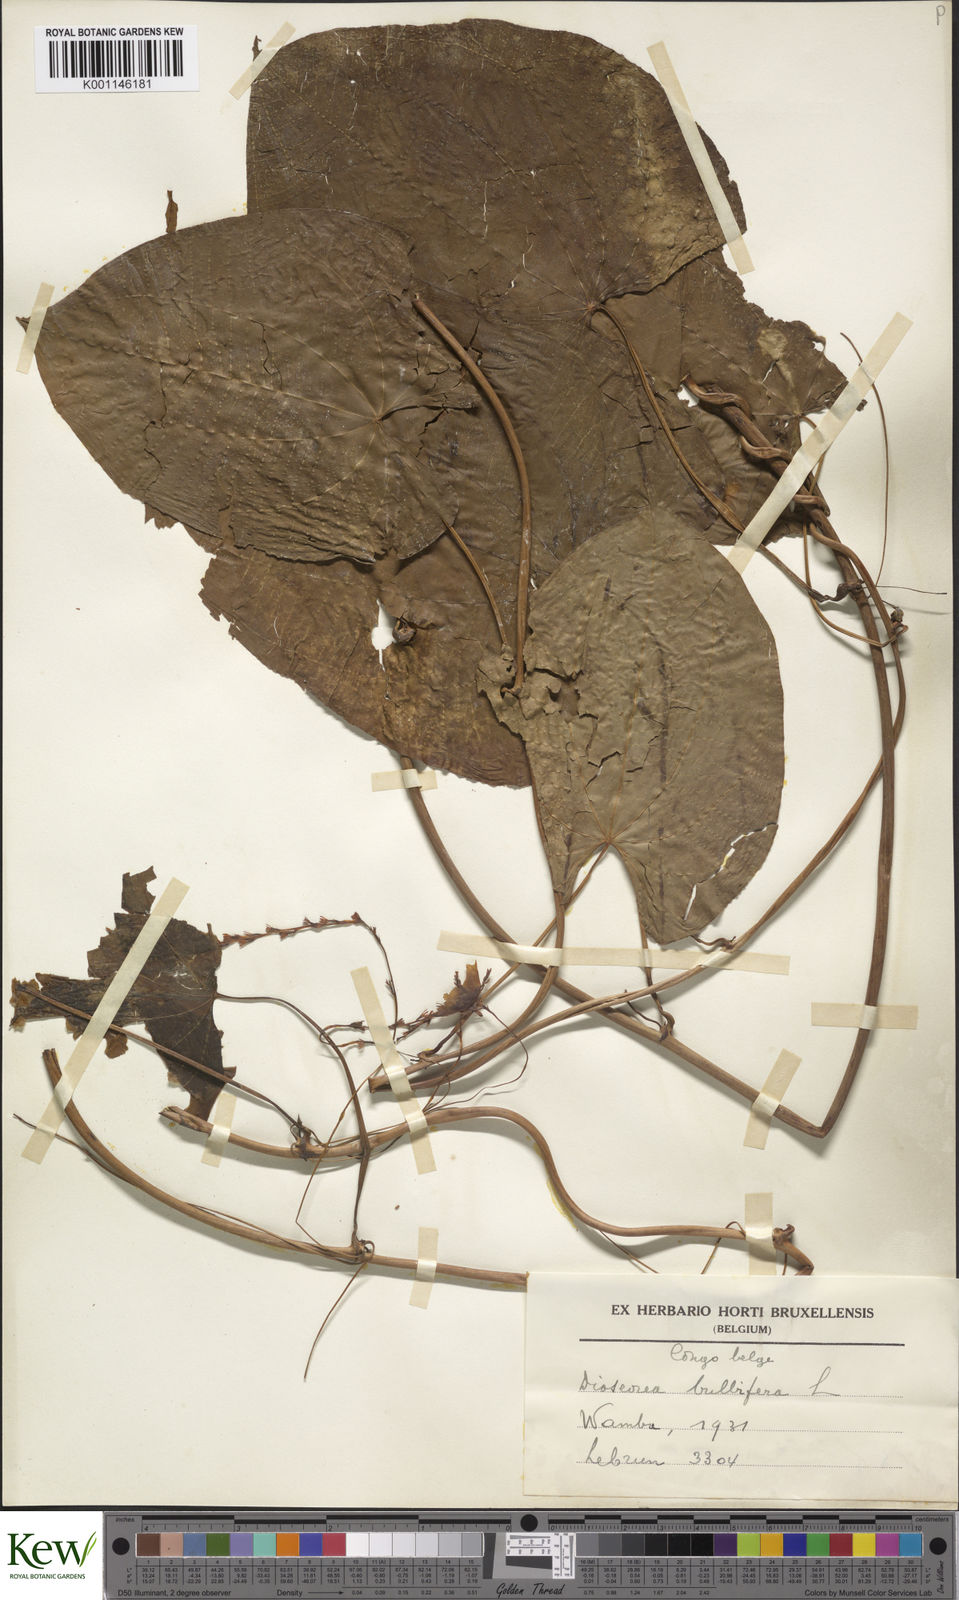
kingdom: Plantae
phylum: Tracheophyta
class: Liliopsida
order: Dioscoreales
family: Dioscoreaceae
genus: Dioscorea
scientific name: Dioscorea bulbifera
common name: Air yam
